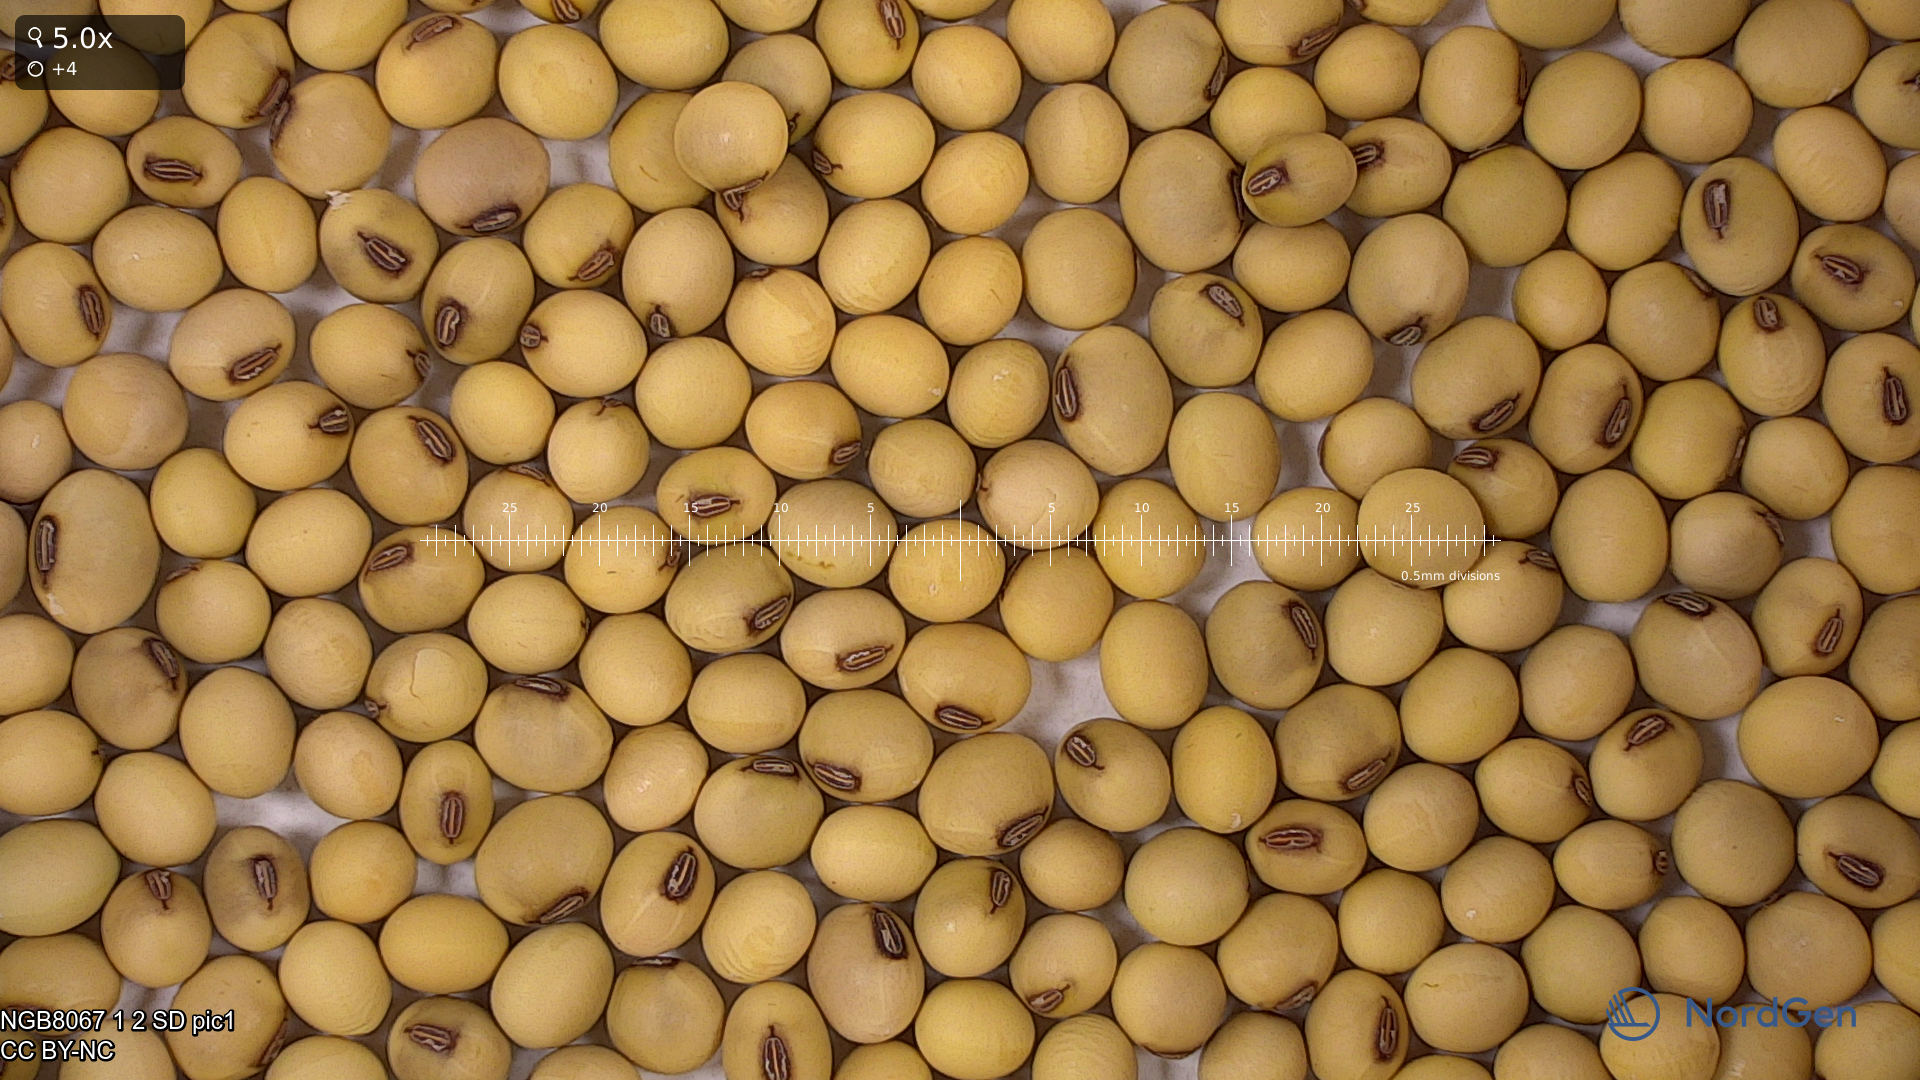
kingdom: Plantae
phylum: Tracheophyta
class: Magnoliopsida
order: Fabales
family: Fabaceae
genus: Glycine
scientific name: Glycine max
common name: Soya-bean
